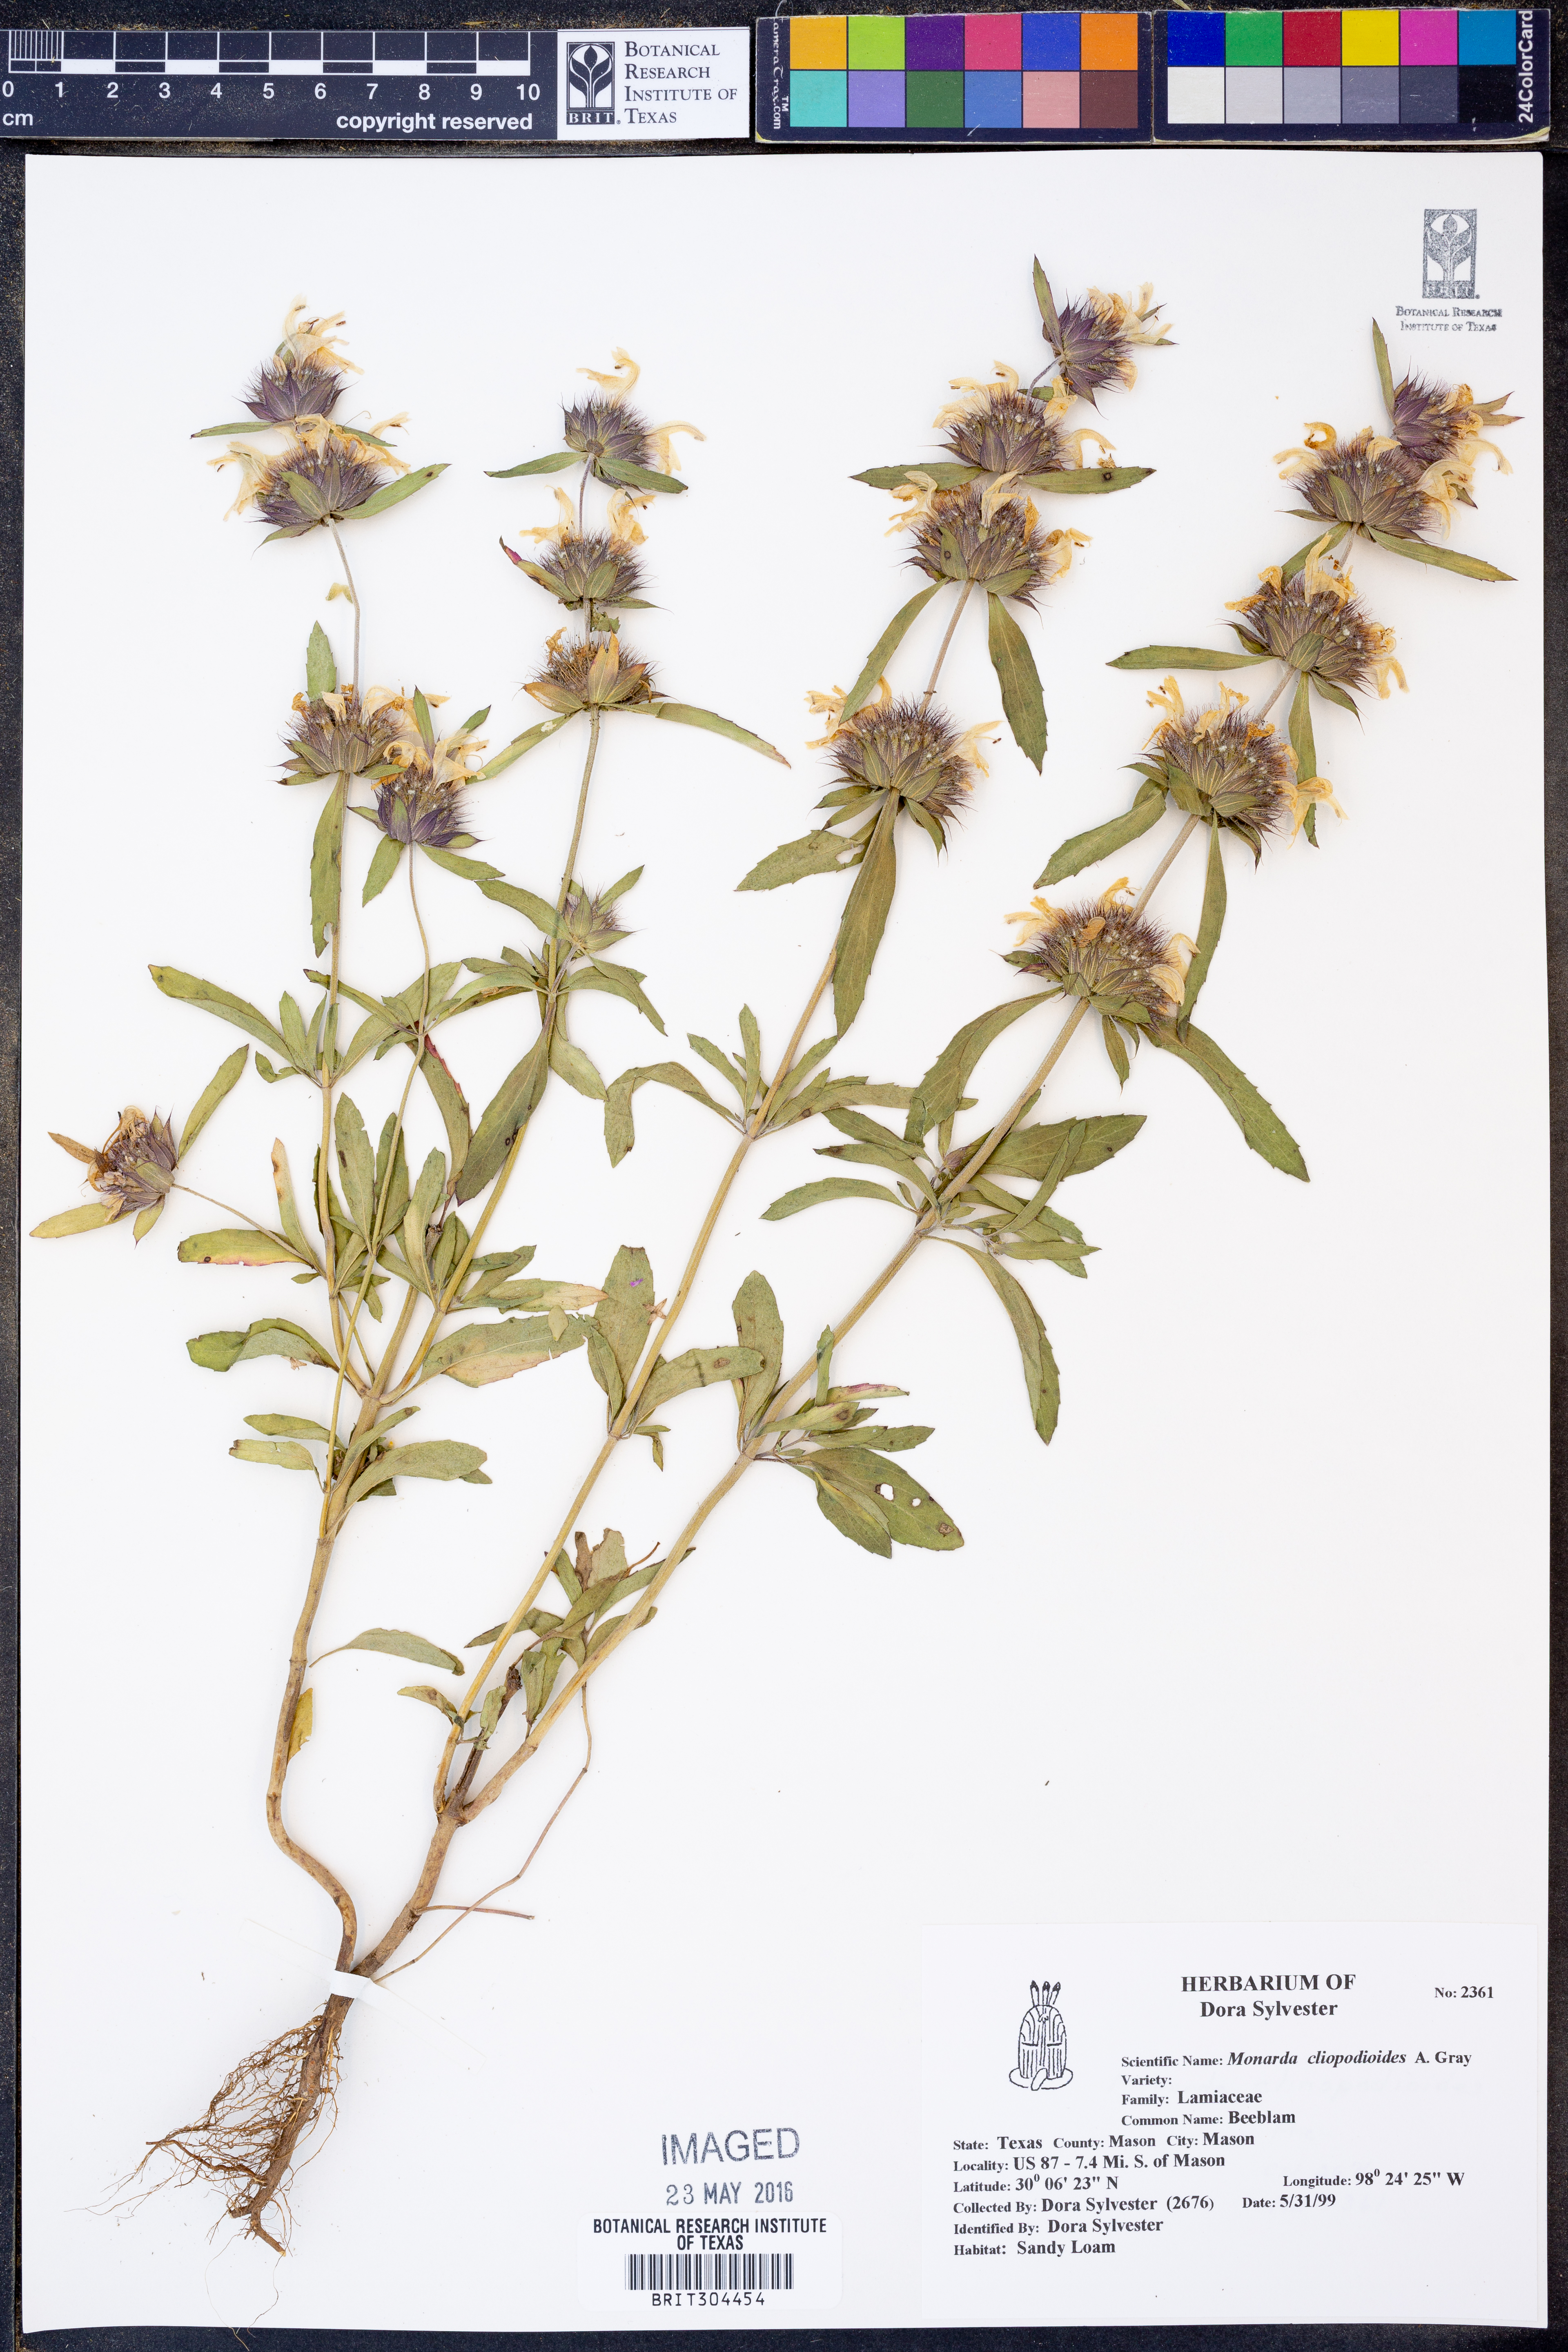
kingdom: Plantae
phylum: Tracheophyta
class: Magnoliopsida
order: Lamiales
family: Lamiaceae
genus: Monarda
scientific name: Monarda clinopodioides
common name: Basil beebalm
